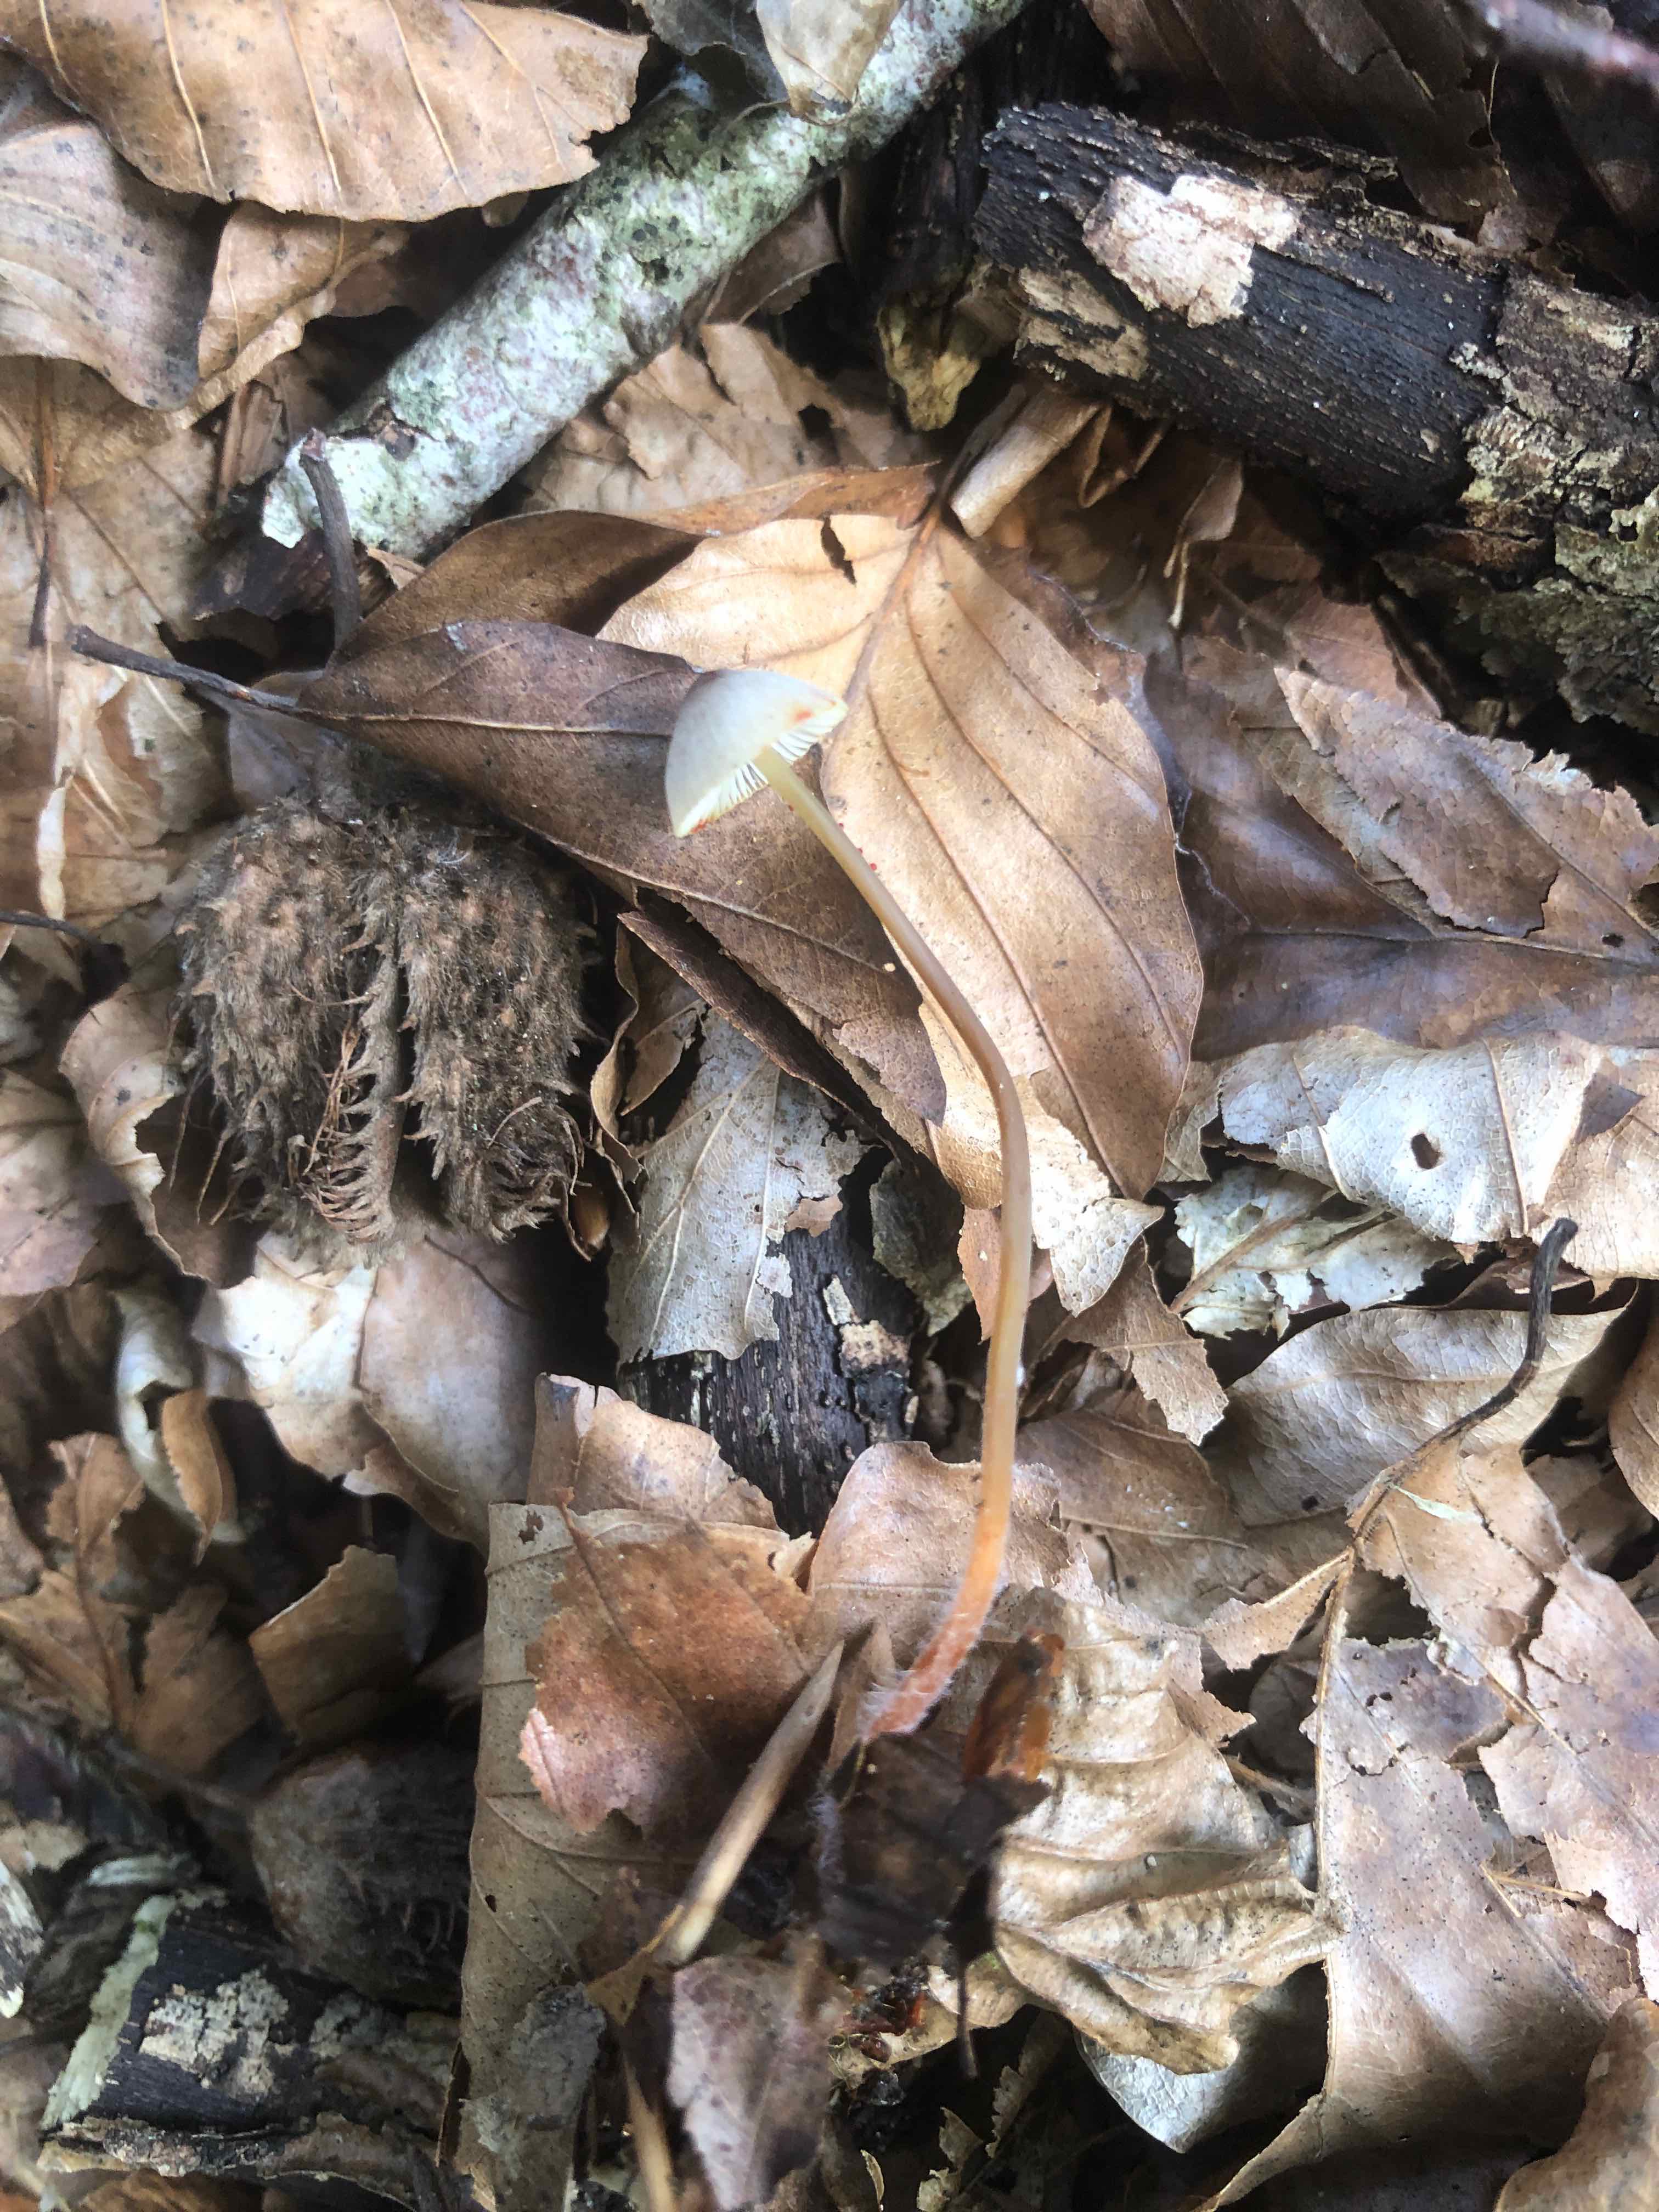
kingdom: Fungi
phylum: Basidiomycota
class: Agaricomycetes
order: Agaricales
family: Mycenaceae
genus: Mycena
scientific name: Mycena crocata
